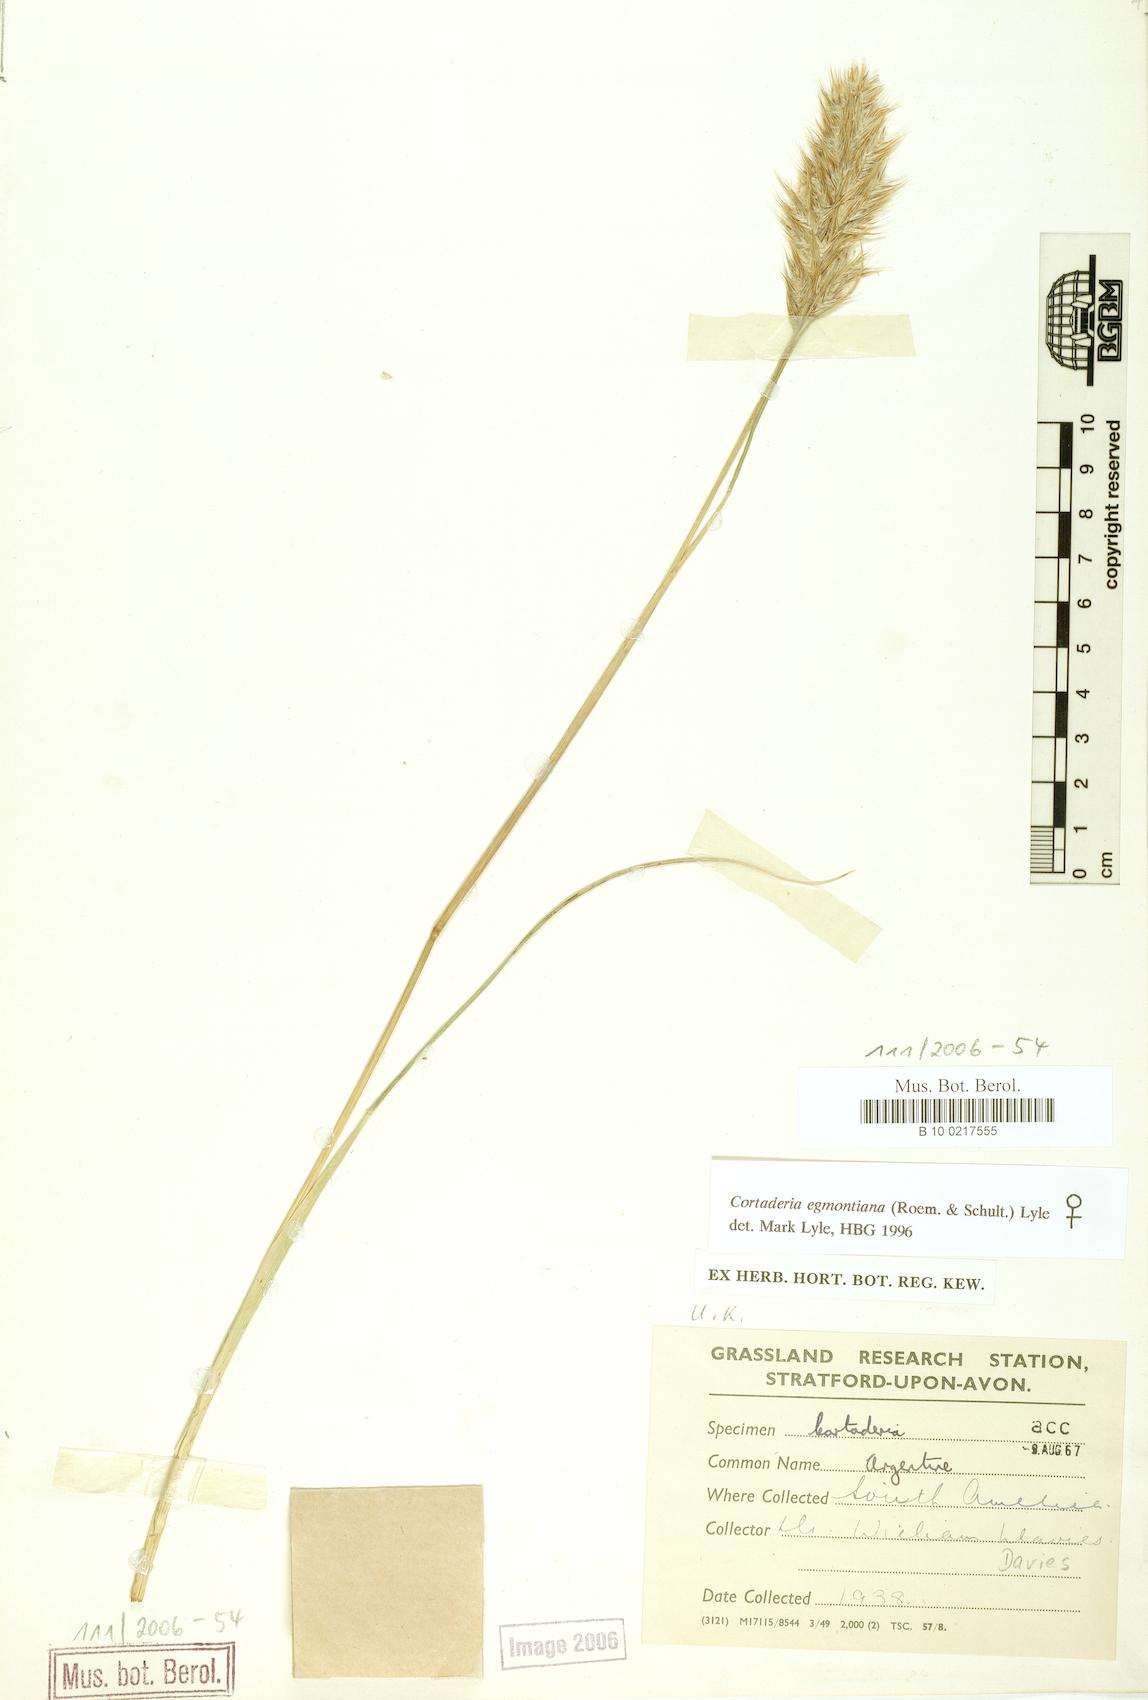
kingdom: Plantae
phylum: Tracheophyta
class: Liliopsida
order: Poales
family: Poaceae
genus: Cortaderia
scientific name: Cortaderia egmontiana
